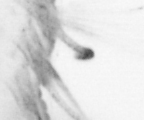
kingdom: Animalia
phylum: Arthropoda
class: Copepoda
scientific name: Copepoda
